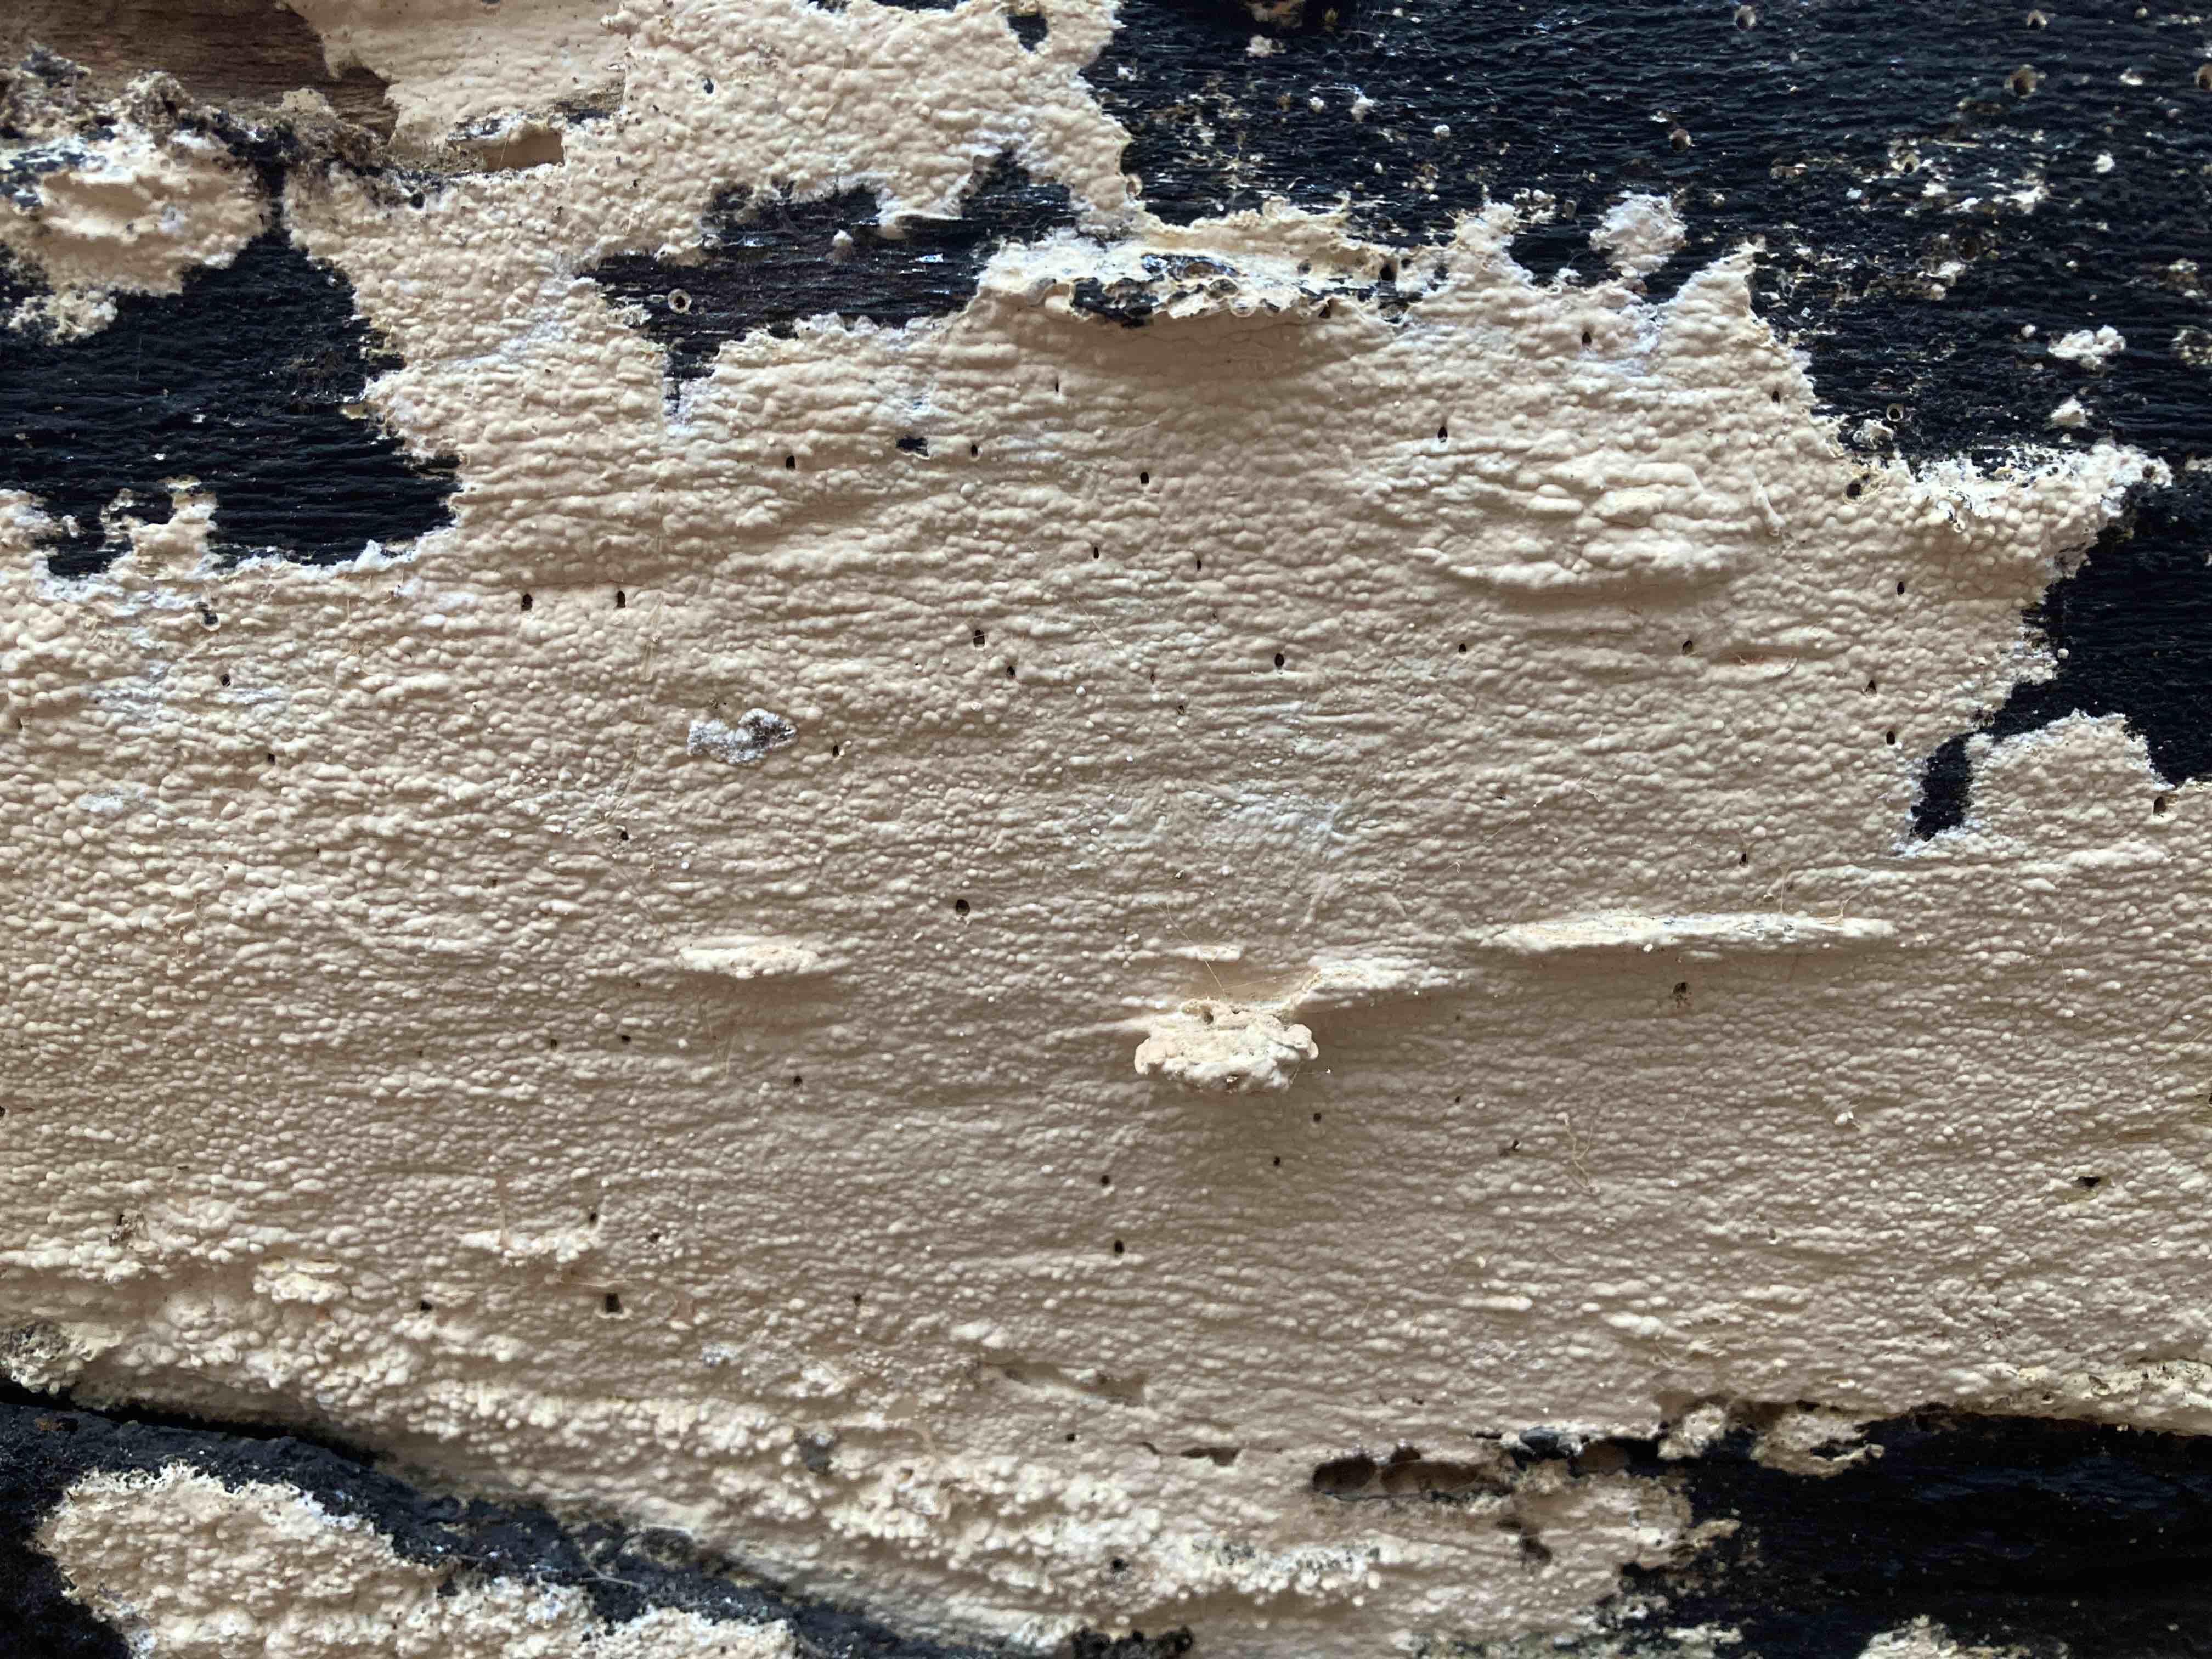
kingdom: Fungi
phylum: Basidiomycota
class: Agaricomycetes
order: Russulales
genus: Gloeohypochnicium
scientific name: Gloeohypochnicium analogum
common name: frugt-kalkskind
